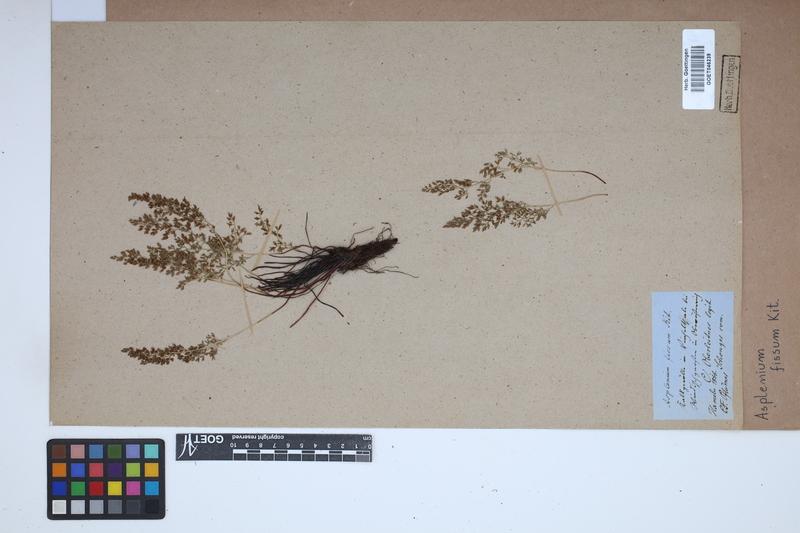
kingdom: Plantae
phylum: Tracheophyta
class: Polypodiopsida
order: Polypodiales
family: Aspleniaceae
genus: Asplenium
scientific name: Asplenium fissum
